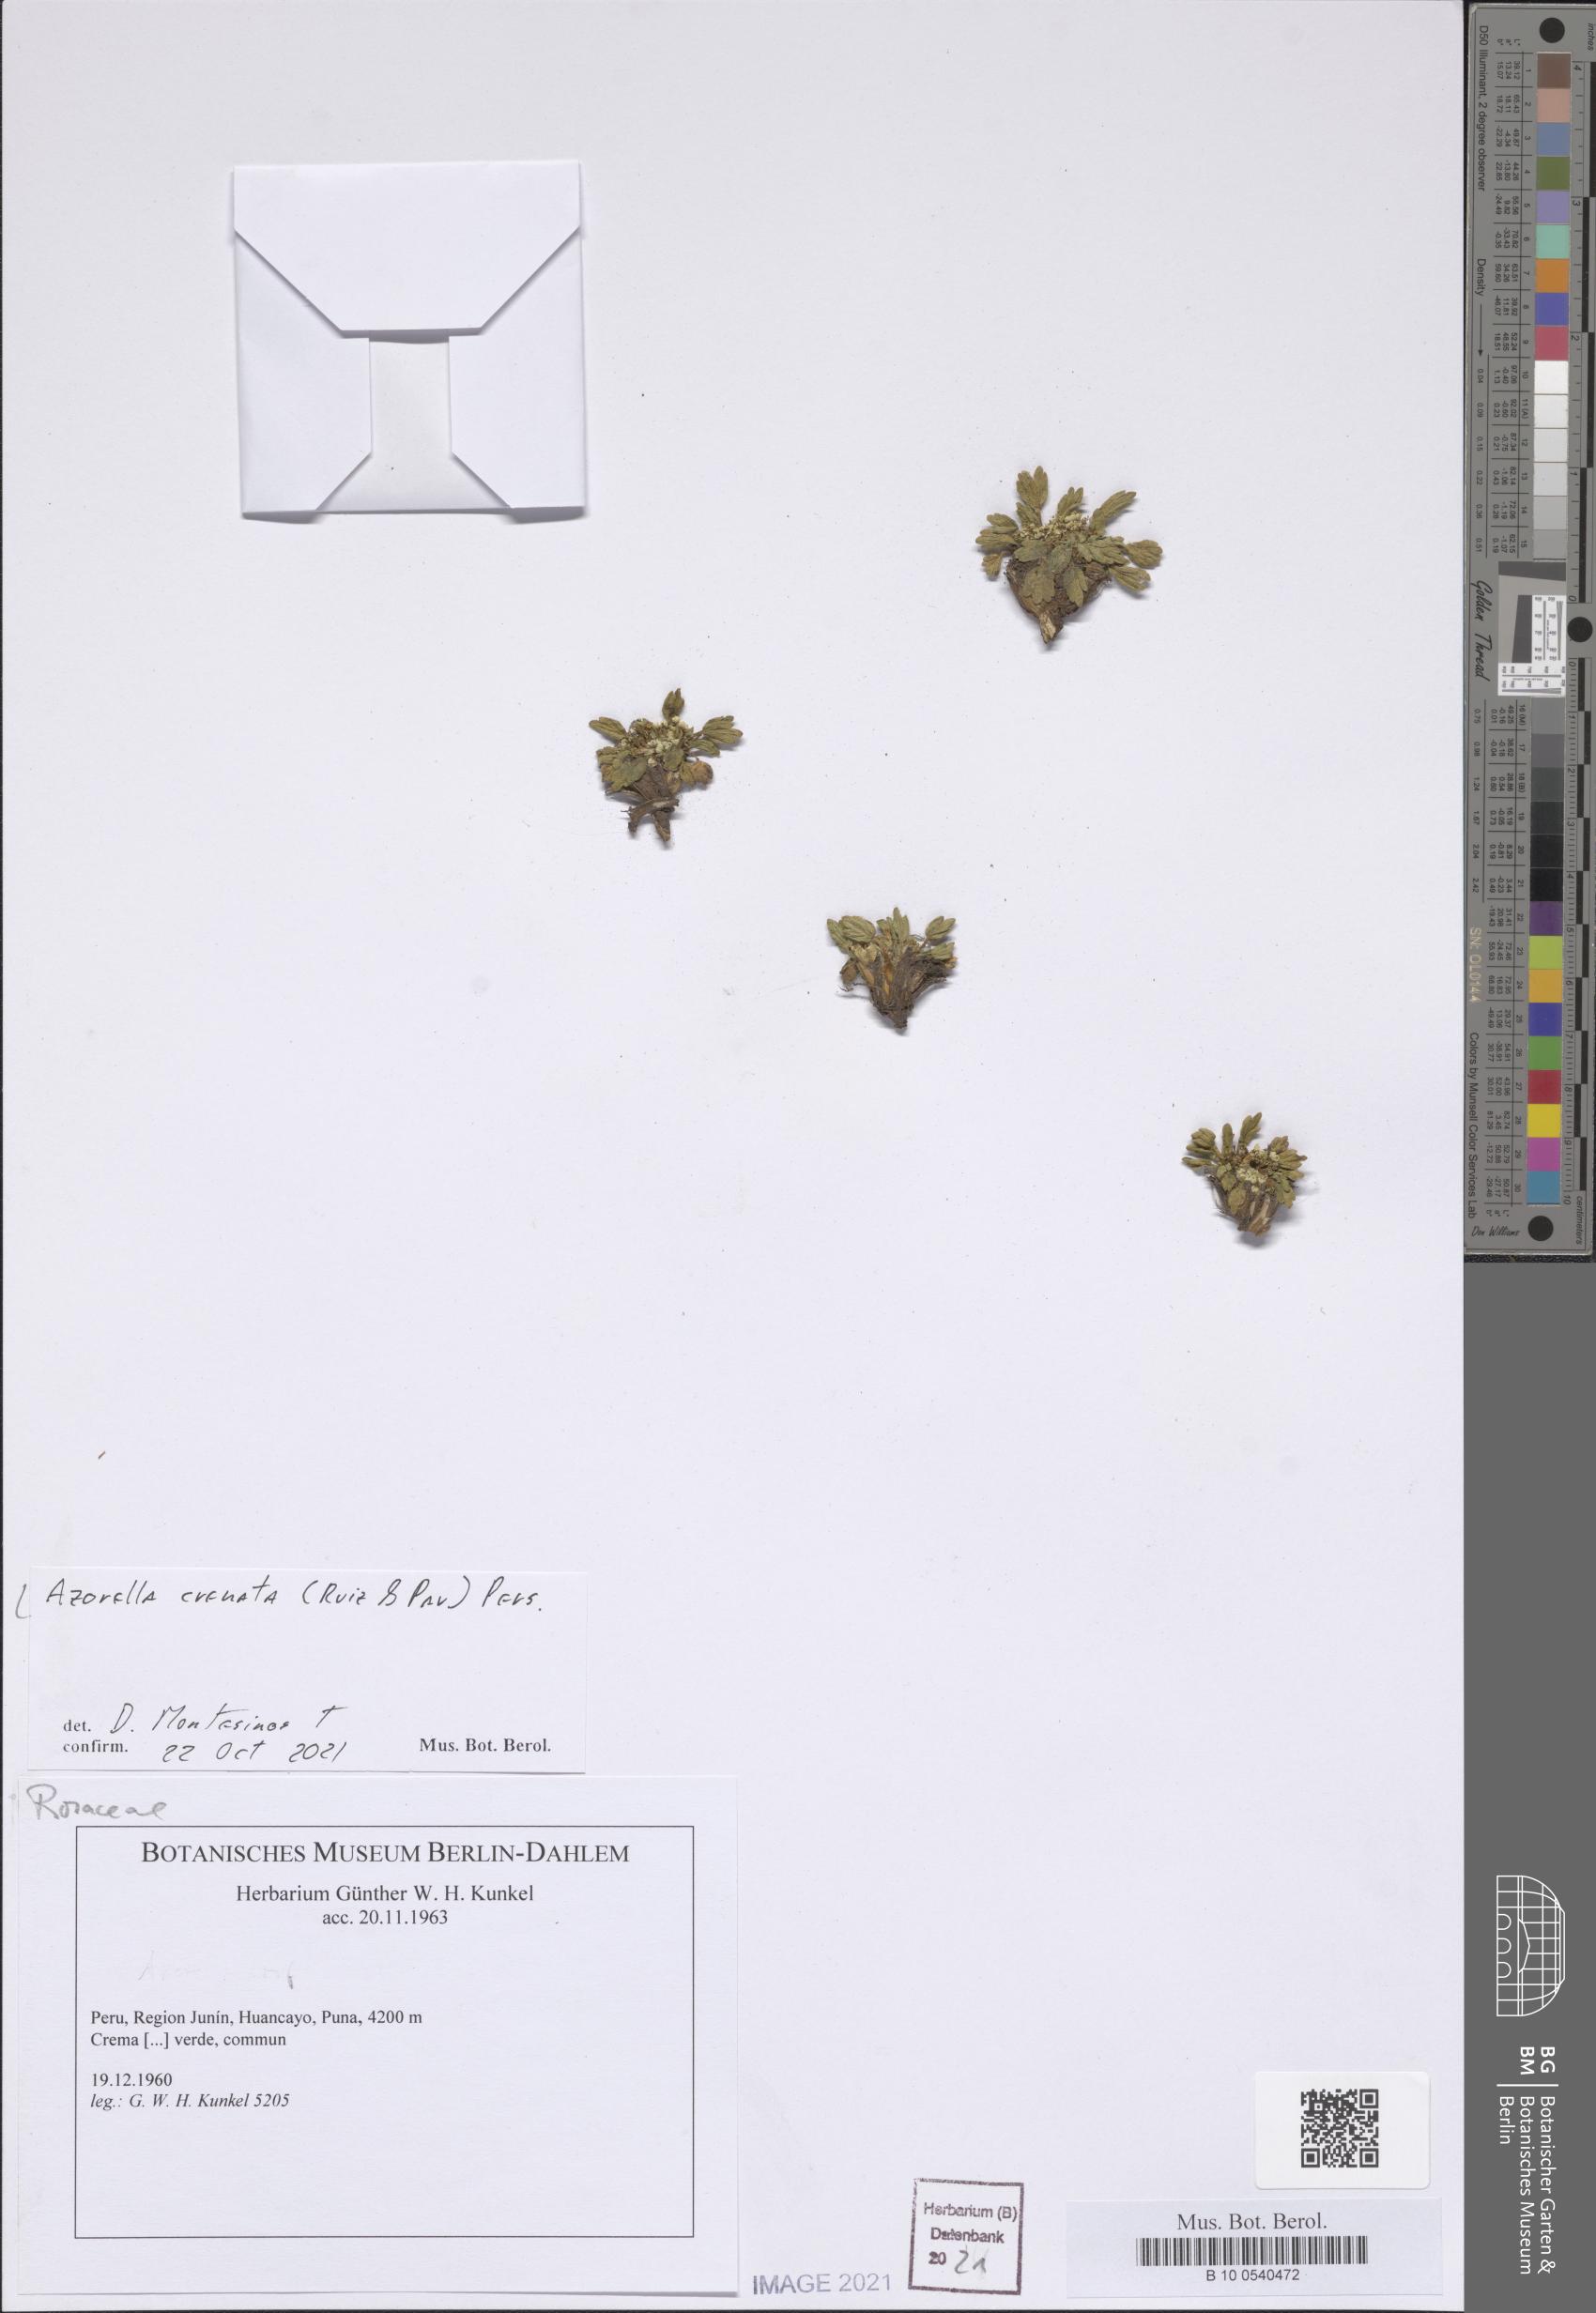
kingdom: Plantae
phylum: Tracheophyta
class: Magnoliopsida
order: Apiales
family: Apiaceae
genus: Azorella
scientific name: Azorella crenata
